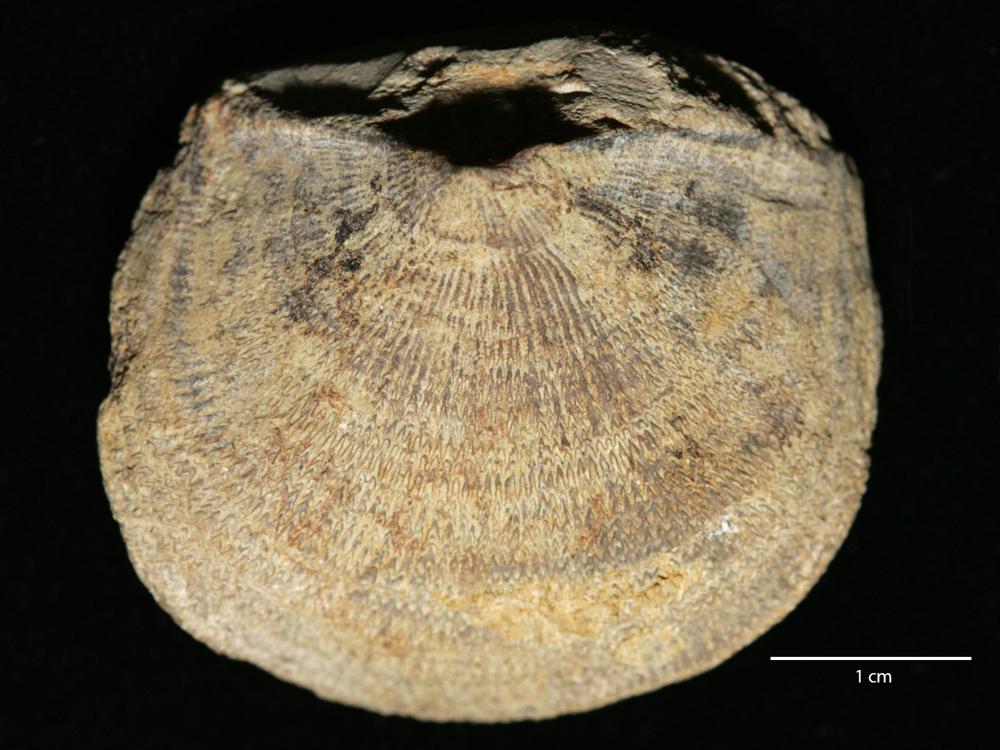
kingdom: Animalia
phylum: Brachiopoda
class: Rhynchonellata
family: Clitambonitidae
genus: Ilmarinia
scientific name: Ilmarinia Orthisina sinuata
